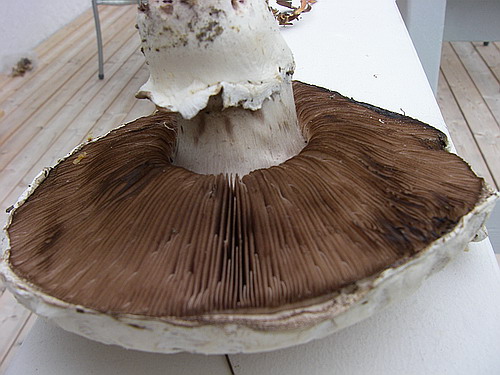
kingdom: Fungi
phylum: Basidiomycota
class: Agaricomycetes
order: Agaricales
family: Agaricaceae
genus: Agaricus
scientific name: Agaricus bernardii
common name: strandengs-champignon
